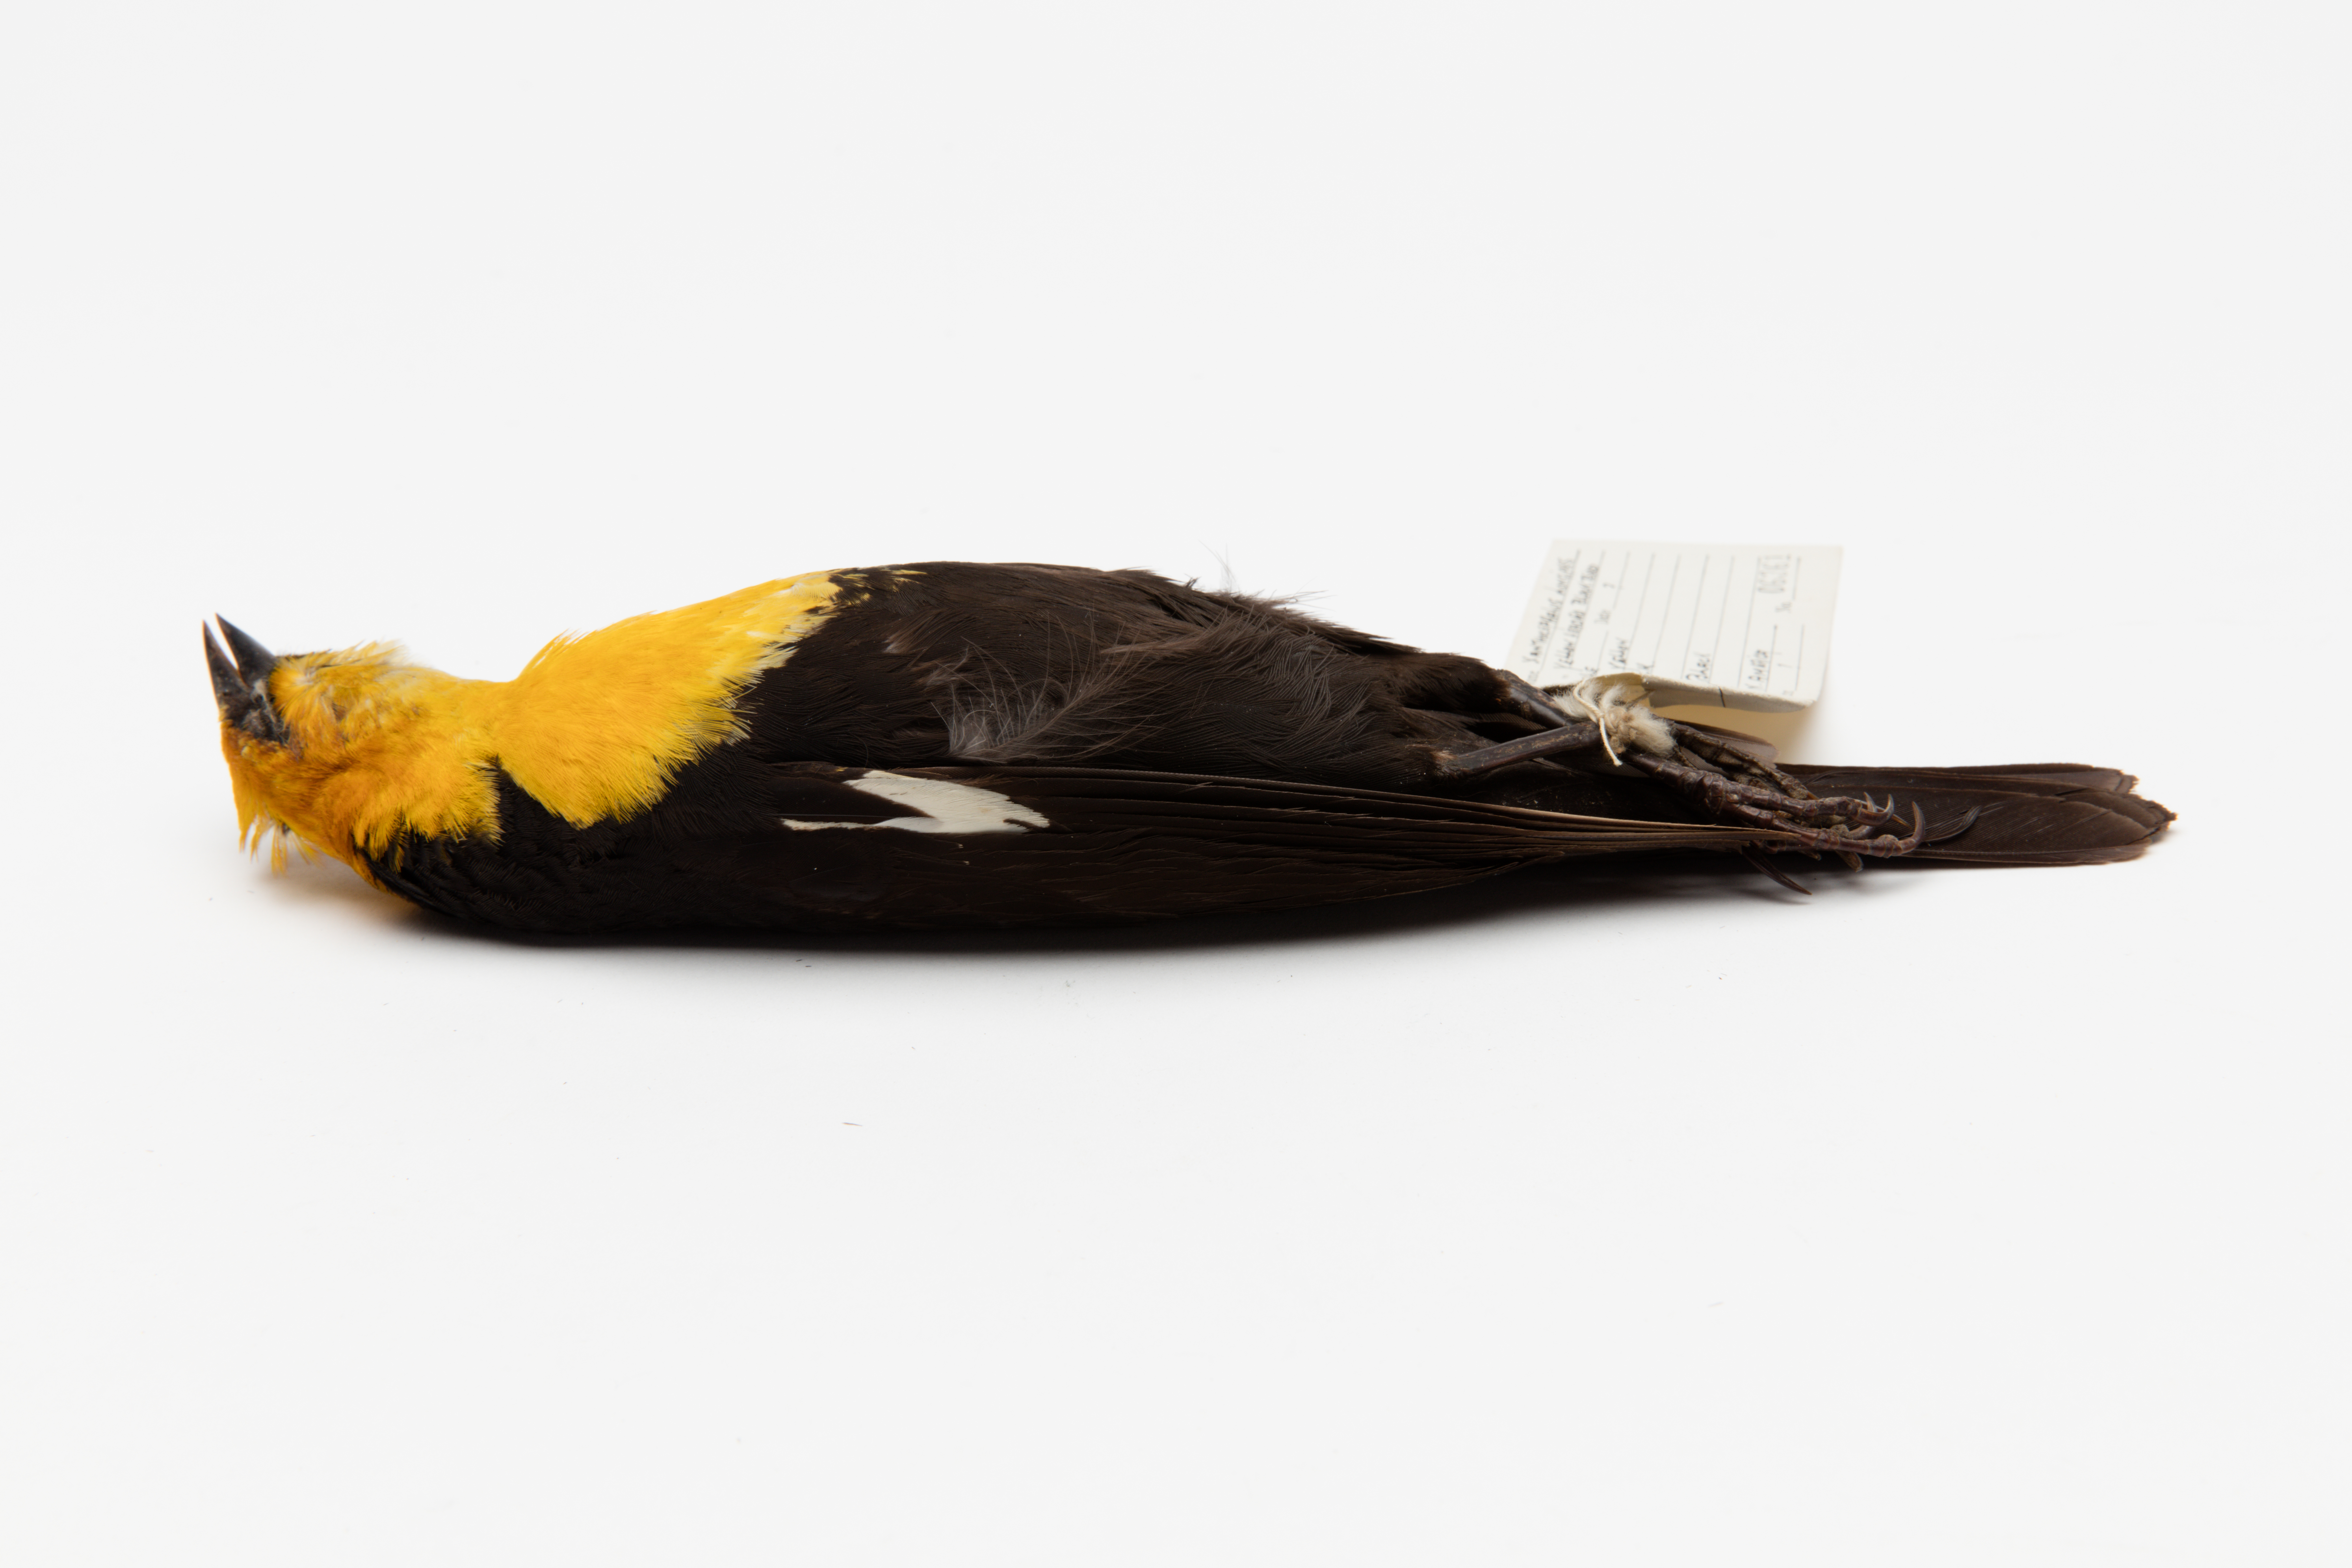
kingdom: Animalia
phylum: Chordata
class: Aves
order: Passeriformes
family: Icteridae
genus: Xanthocephalus
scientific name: Xanthocephalus xanthocephalus
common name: Yellow-headed blackbird
